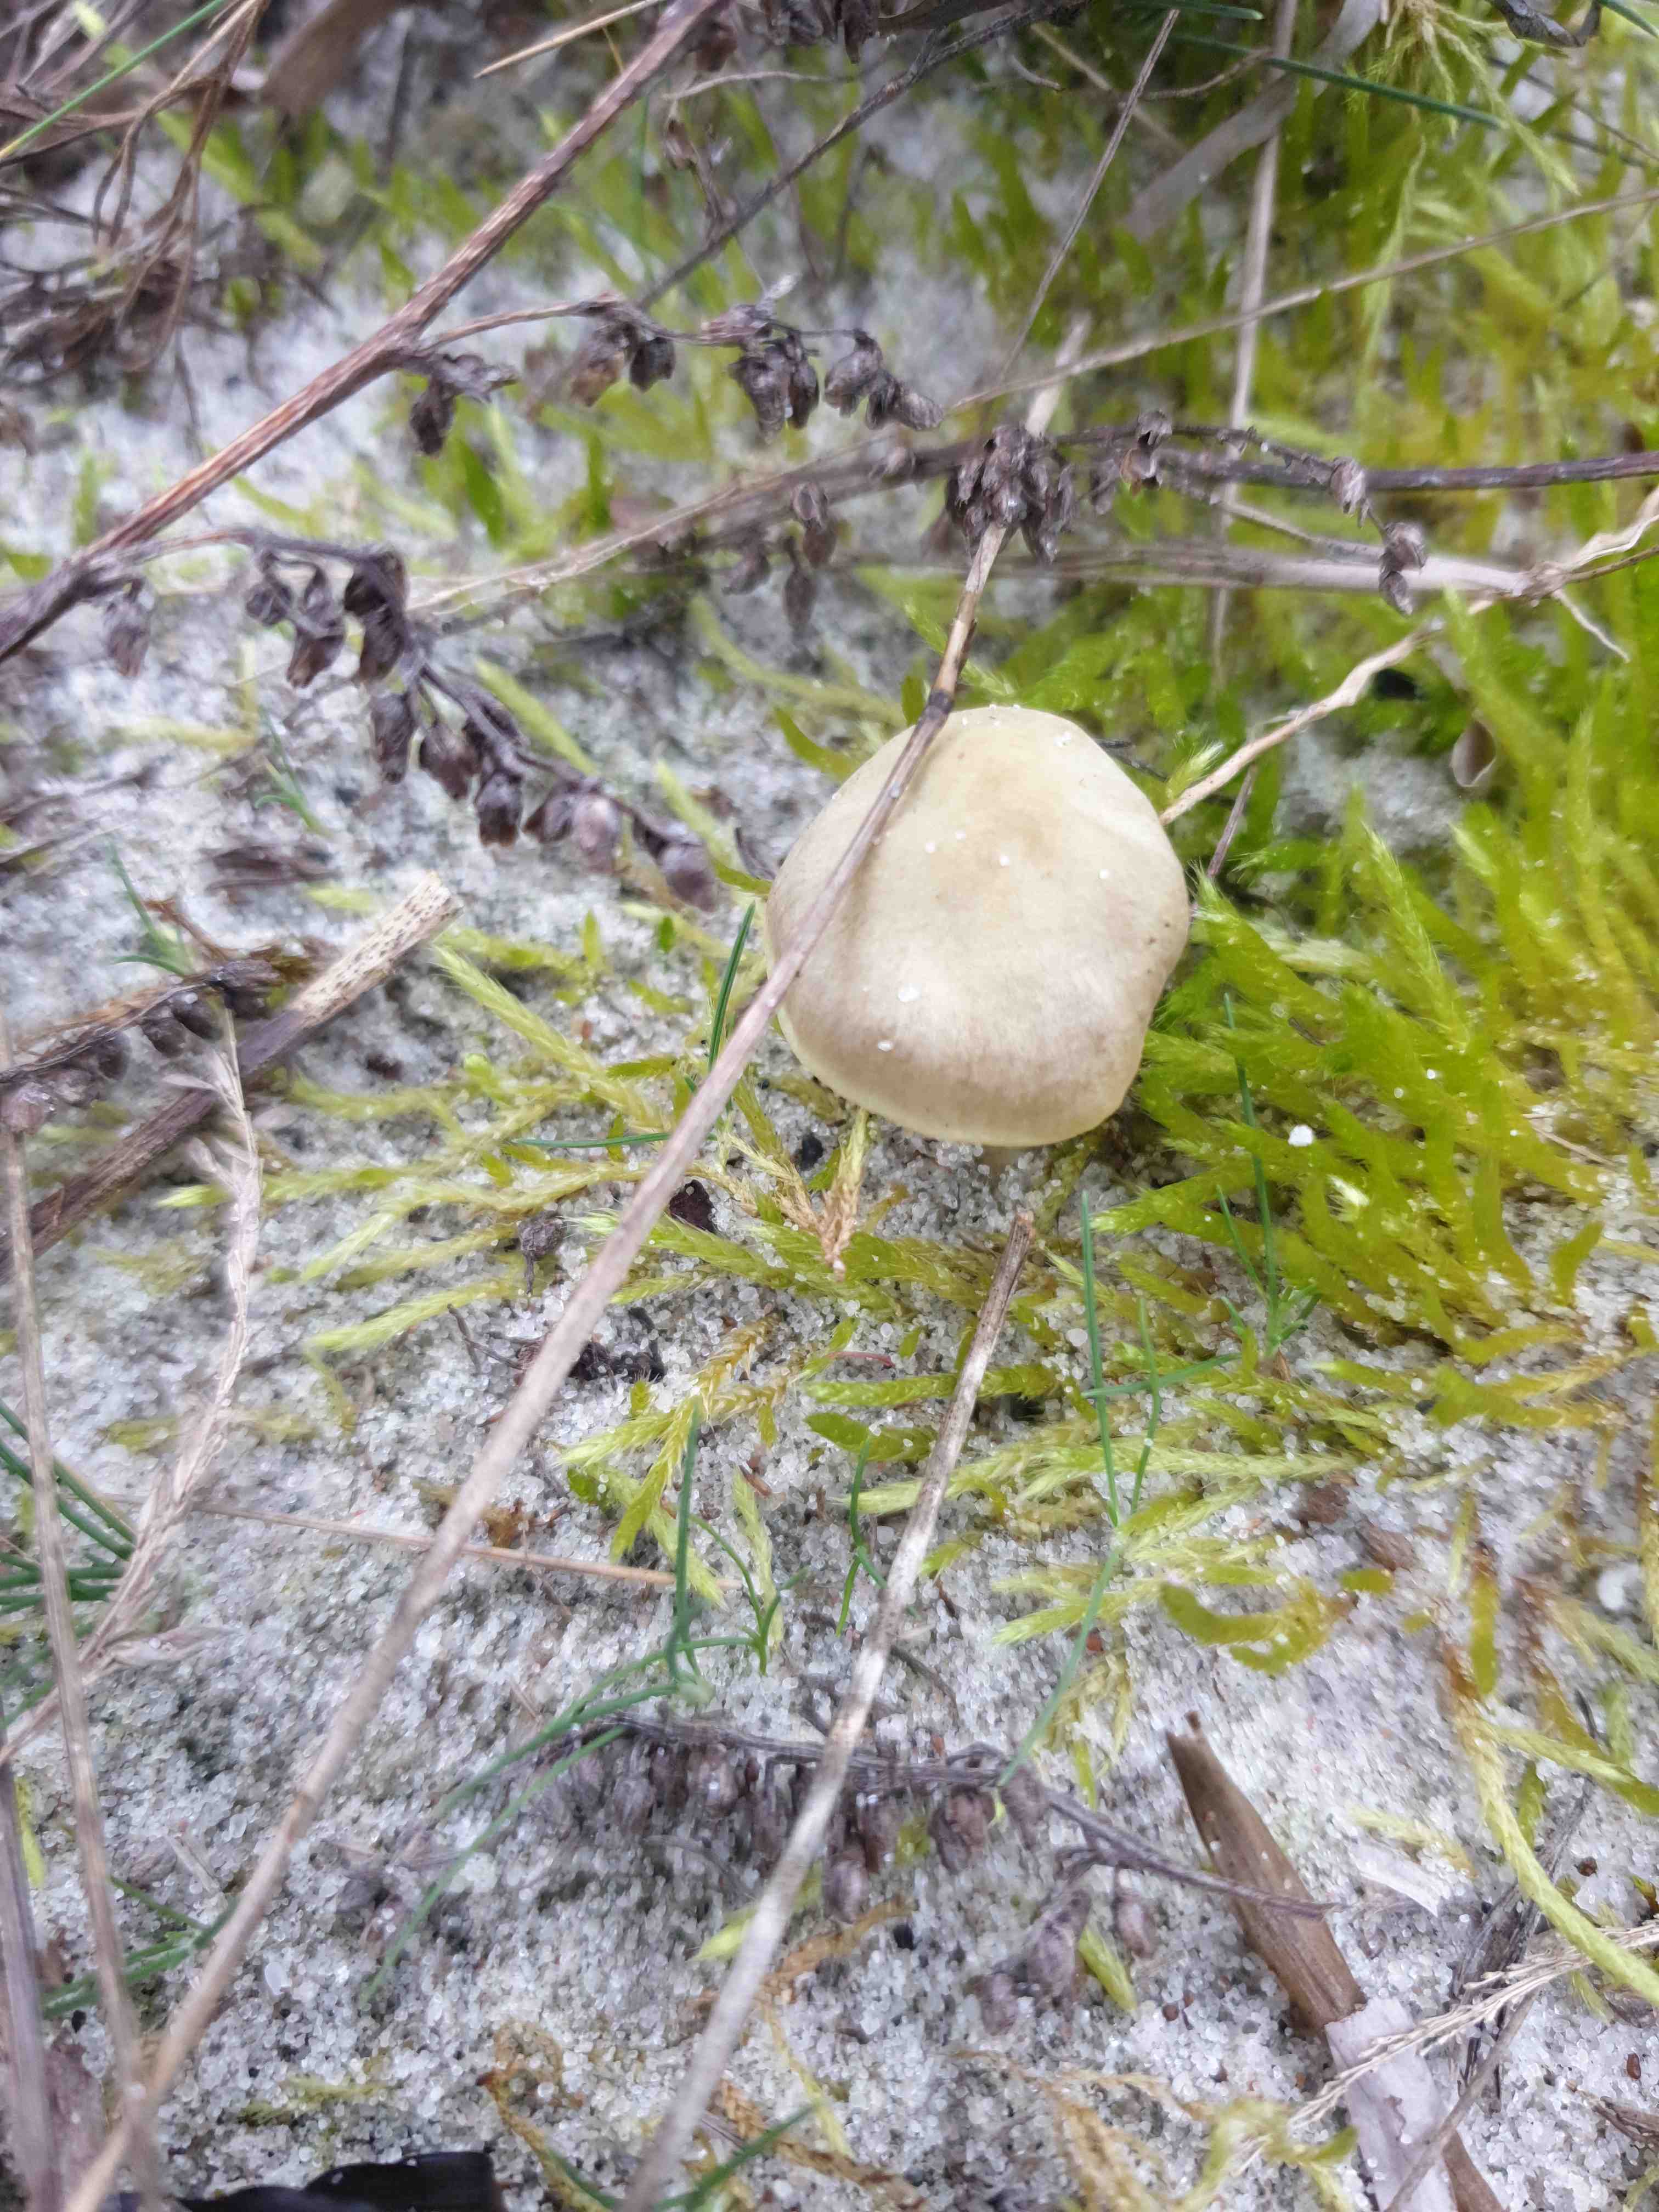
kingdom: Fungi
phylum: Basidiomycota
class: Agaricomycetes
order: Agaricales
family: Mycenaceae
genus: Mycena
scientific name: Mycena chlorantha
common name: klit-huesvamp
